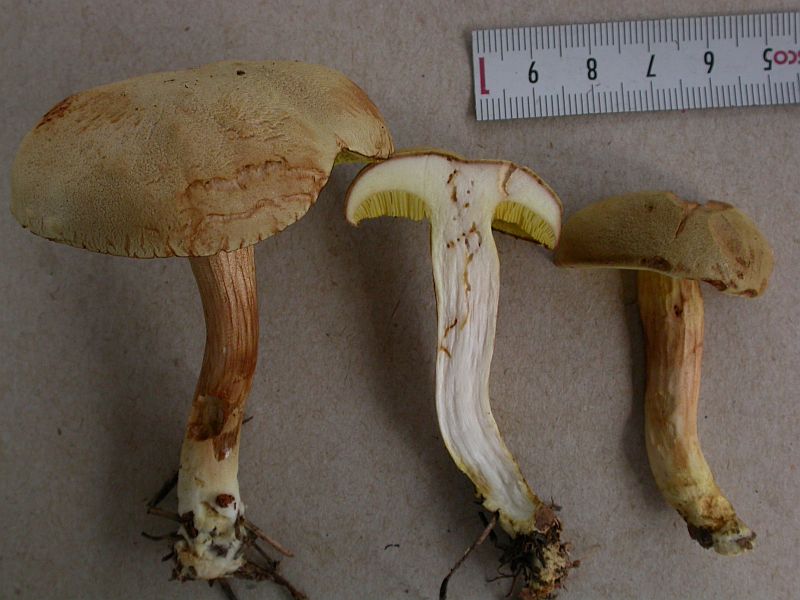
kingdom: Fungi
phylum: Basidiomycota
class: Agaricomycetes
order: Boletales
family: Boletaceae
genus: Xerocomus
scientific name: Xerocomus ferrugineus
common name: vaskeskinds-rørhat
